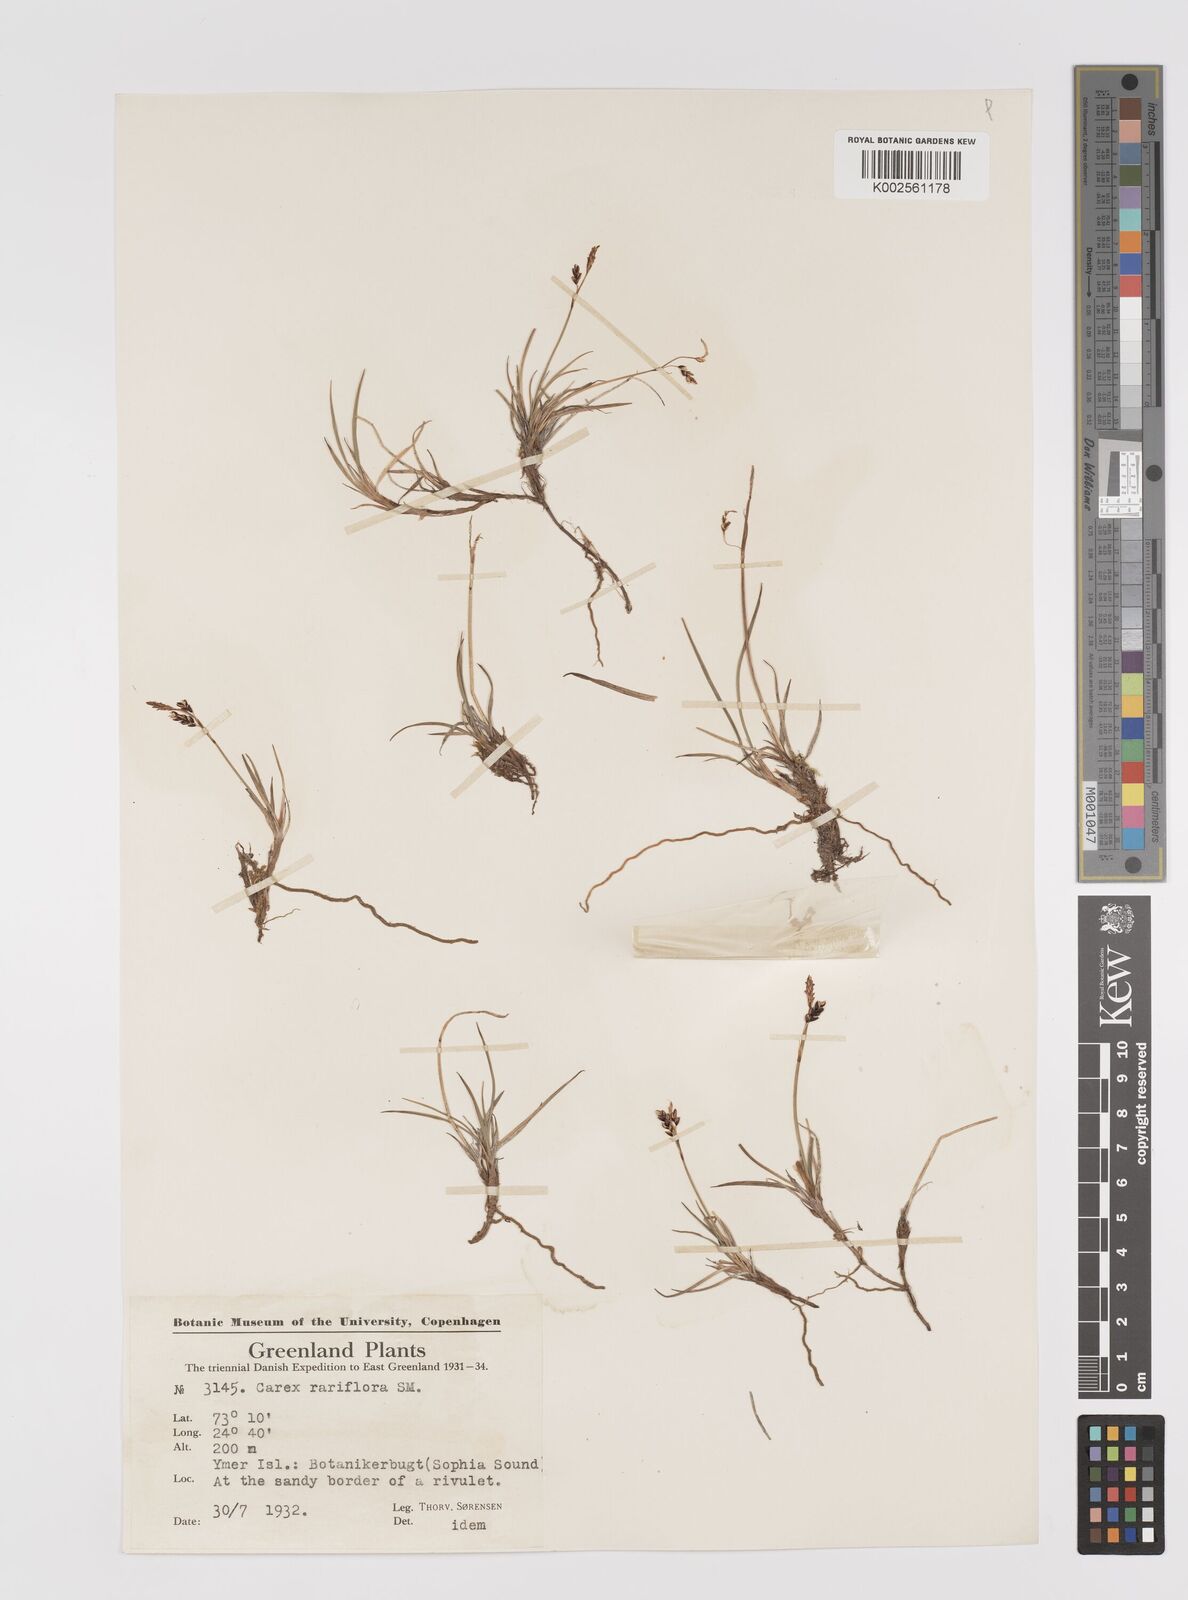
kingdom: Plantae
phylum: Tracheophyta
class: Liliopsida
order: Poales
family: Cyperaceae
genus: Carex
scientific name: Carex rariflora
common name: Loose-flowered alpine sedge
